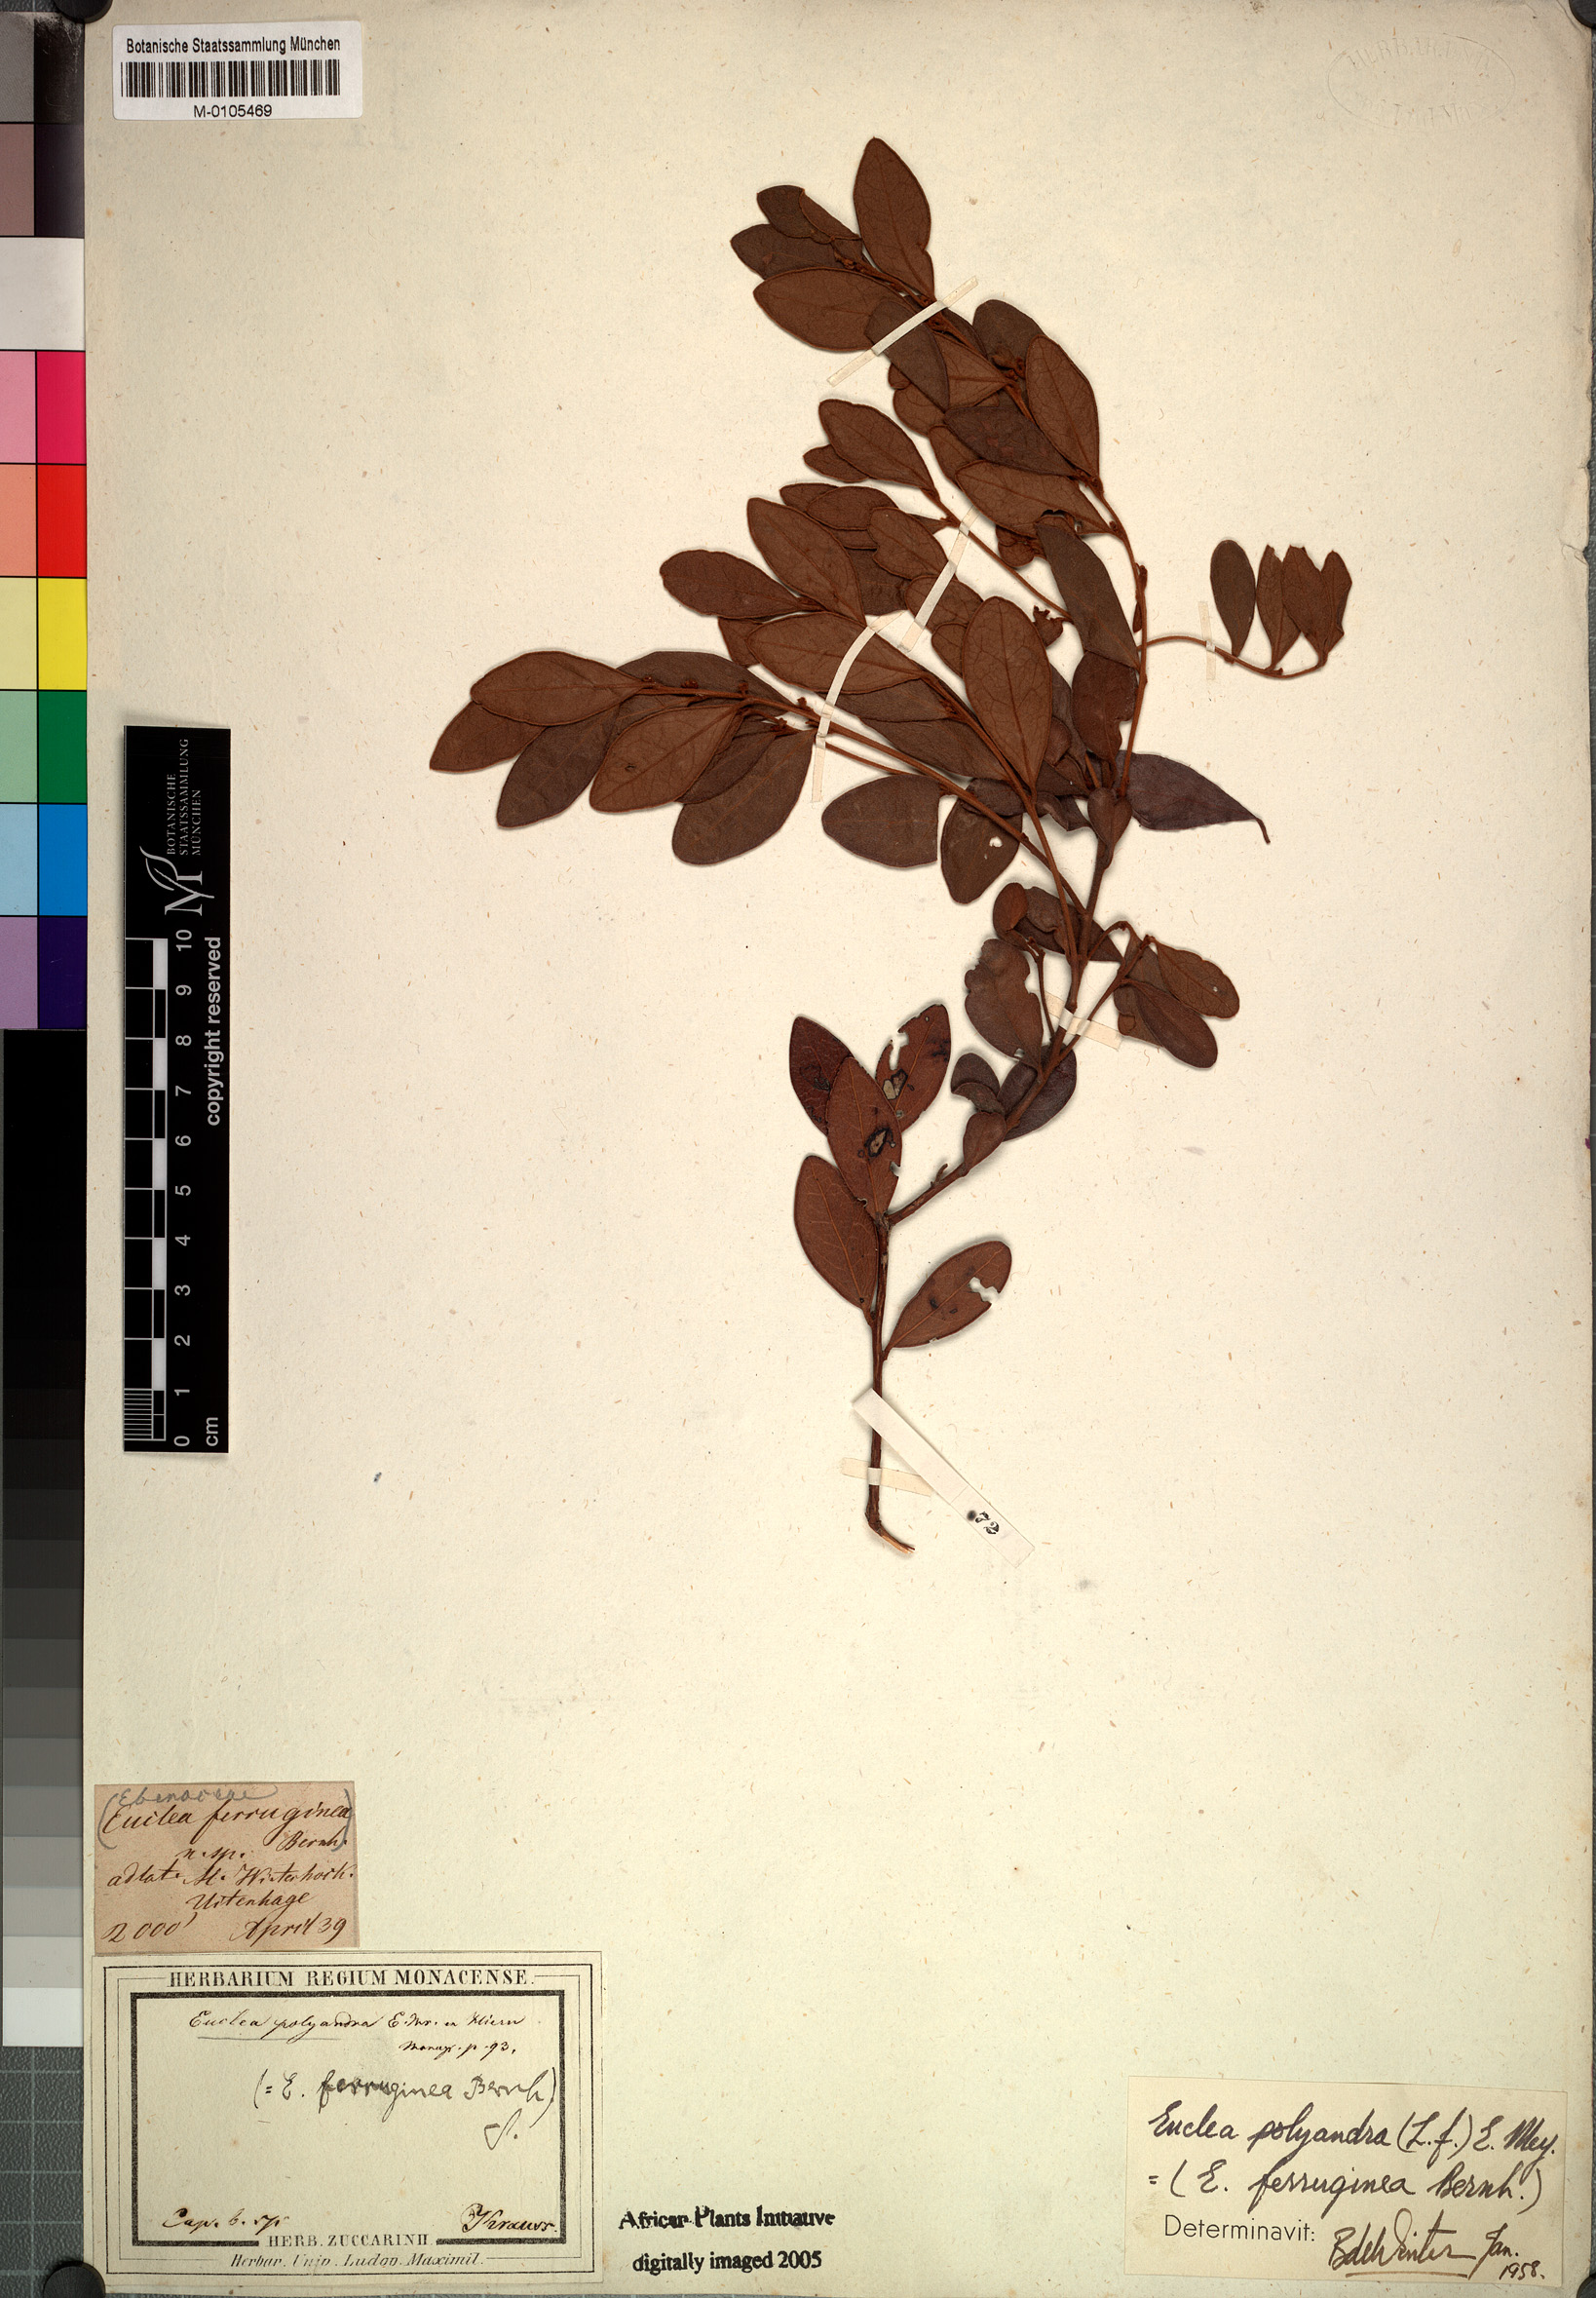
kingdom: Plantae
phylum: Tracheophyta
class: Magnoliopsida
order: Ericales
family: Ebenaceae
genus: Euclea
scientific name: Euclea polyandra
